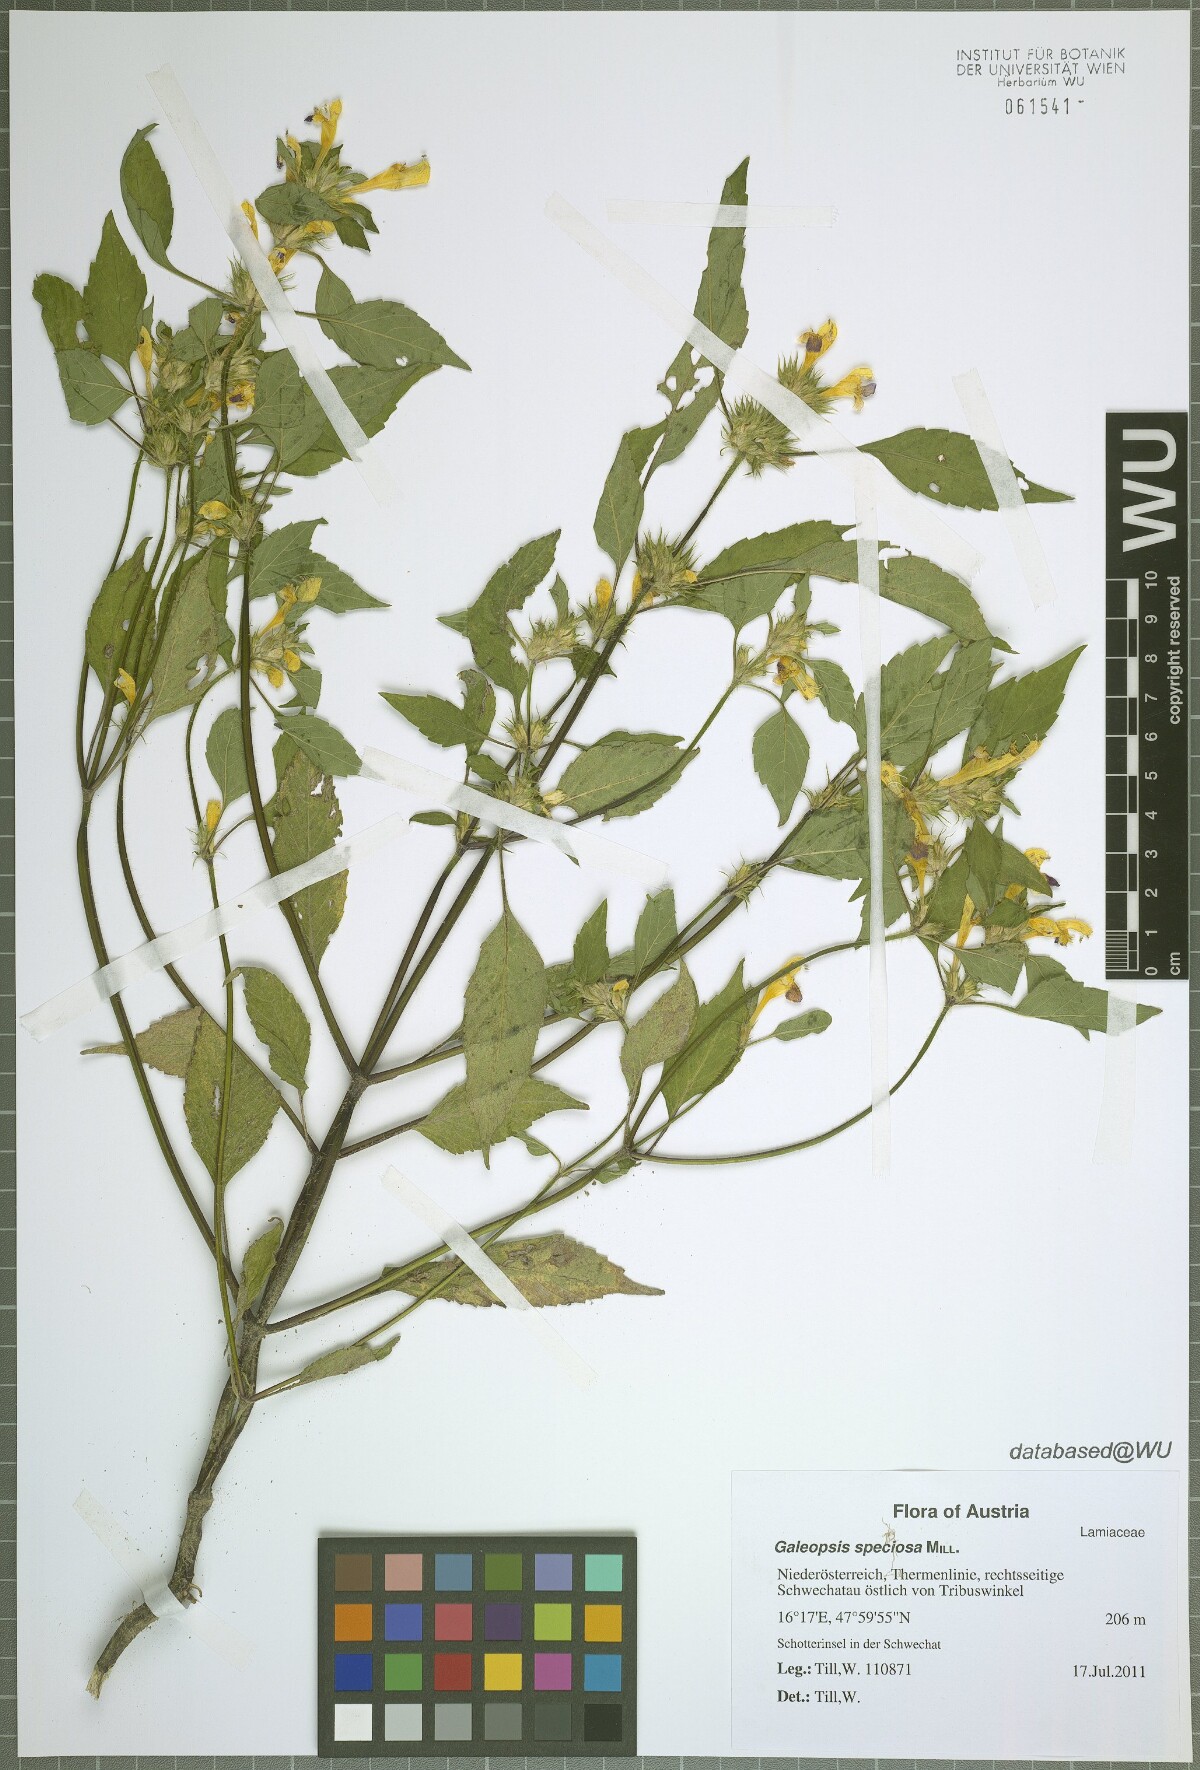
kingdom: Plantae
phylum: Tracheophyta
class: Magnoliopsida
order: Lamiales
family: Lamiaceae
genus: Galeopsis
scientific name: Galeopsis speciosa
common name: Large-flowered hemp-nettle
